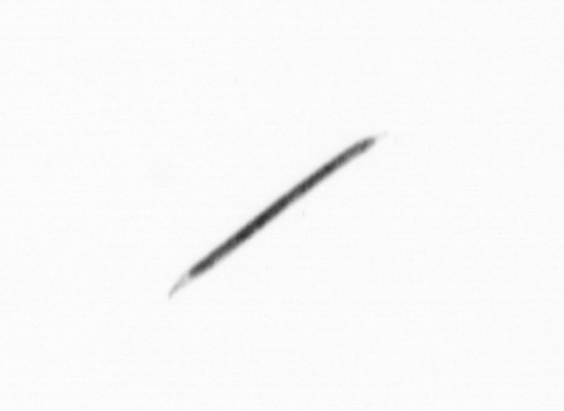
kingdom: Bacteria
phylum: Cyanobacteria
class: Cyanobacteriia
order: Cyanobacteriales
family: Microcoleaceae
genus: Trichodesmium
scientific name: Trichodesmium
